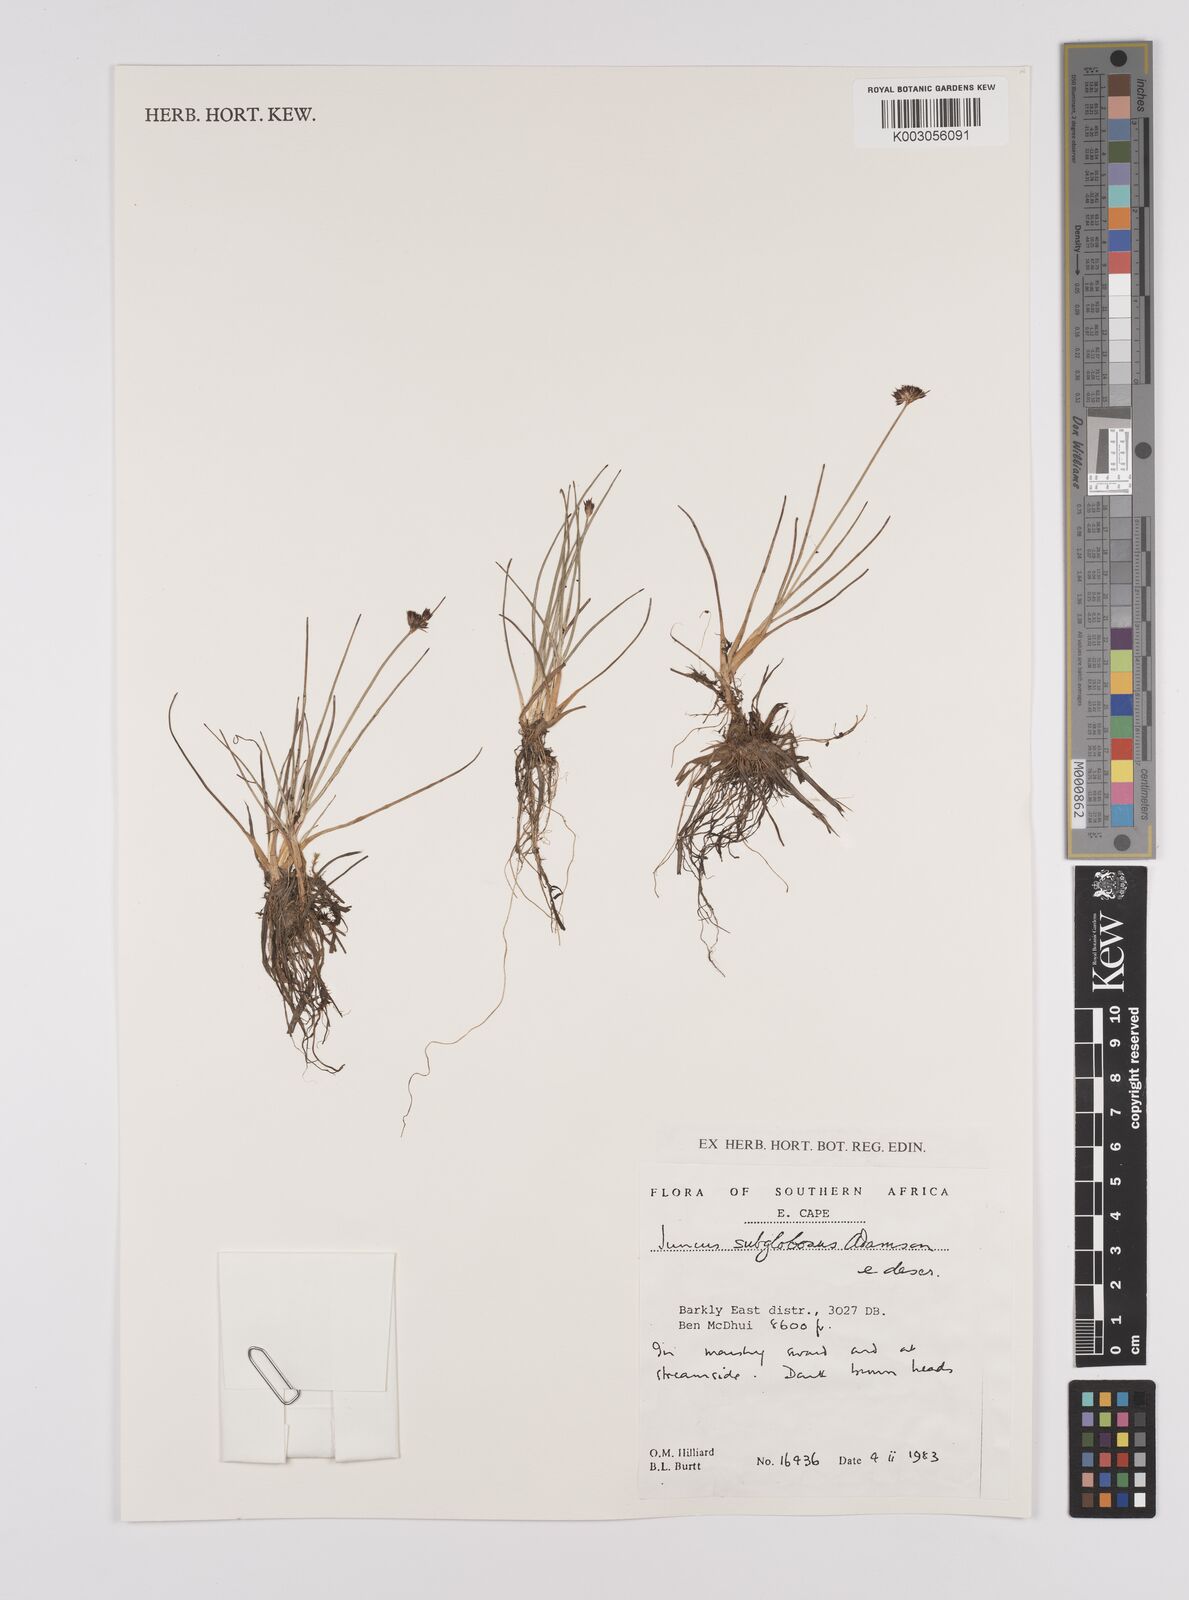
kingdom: Plantae
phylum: Tracheophyta
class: Liliopsida
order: Poales
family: Juncaceae
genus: Juncus
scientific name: Juncus dregeanus
